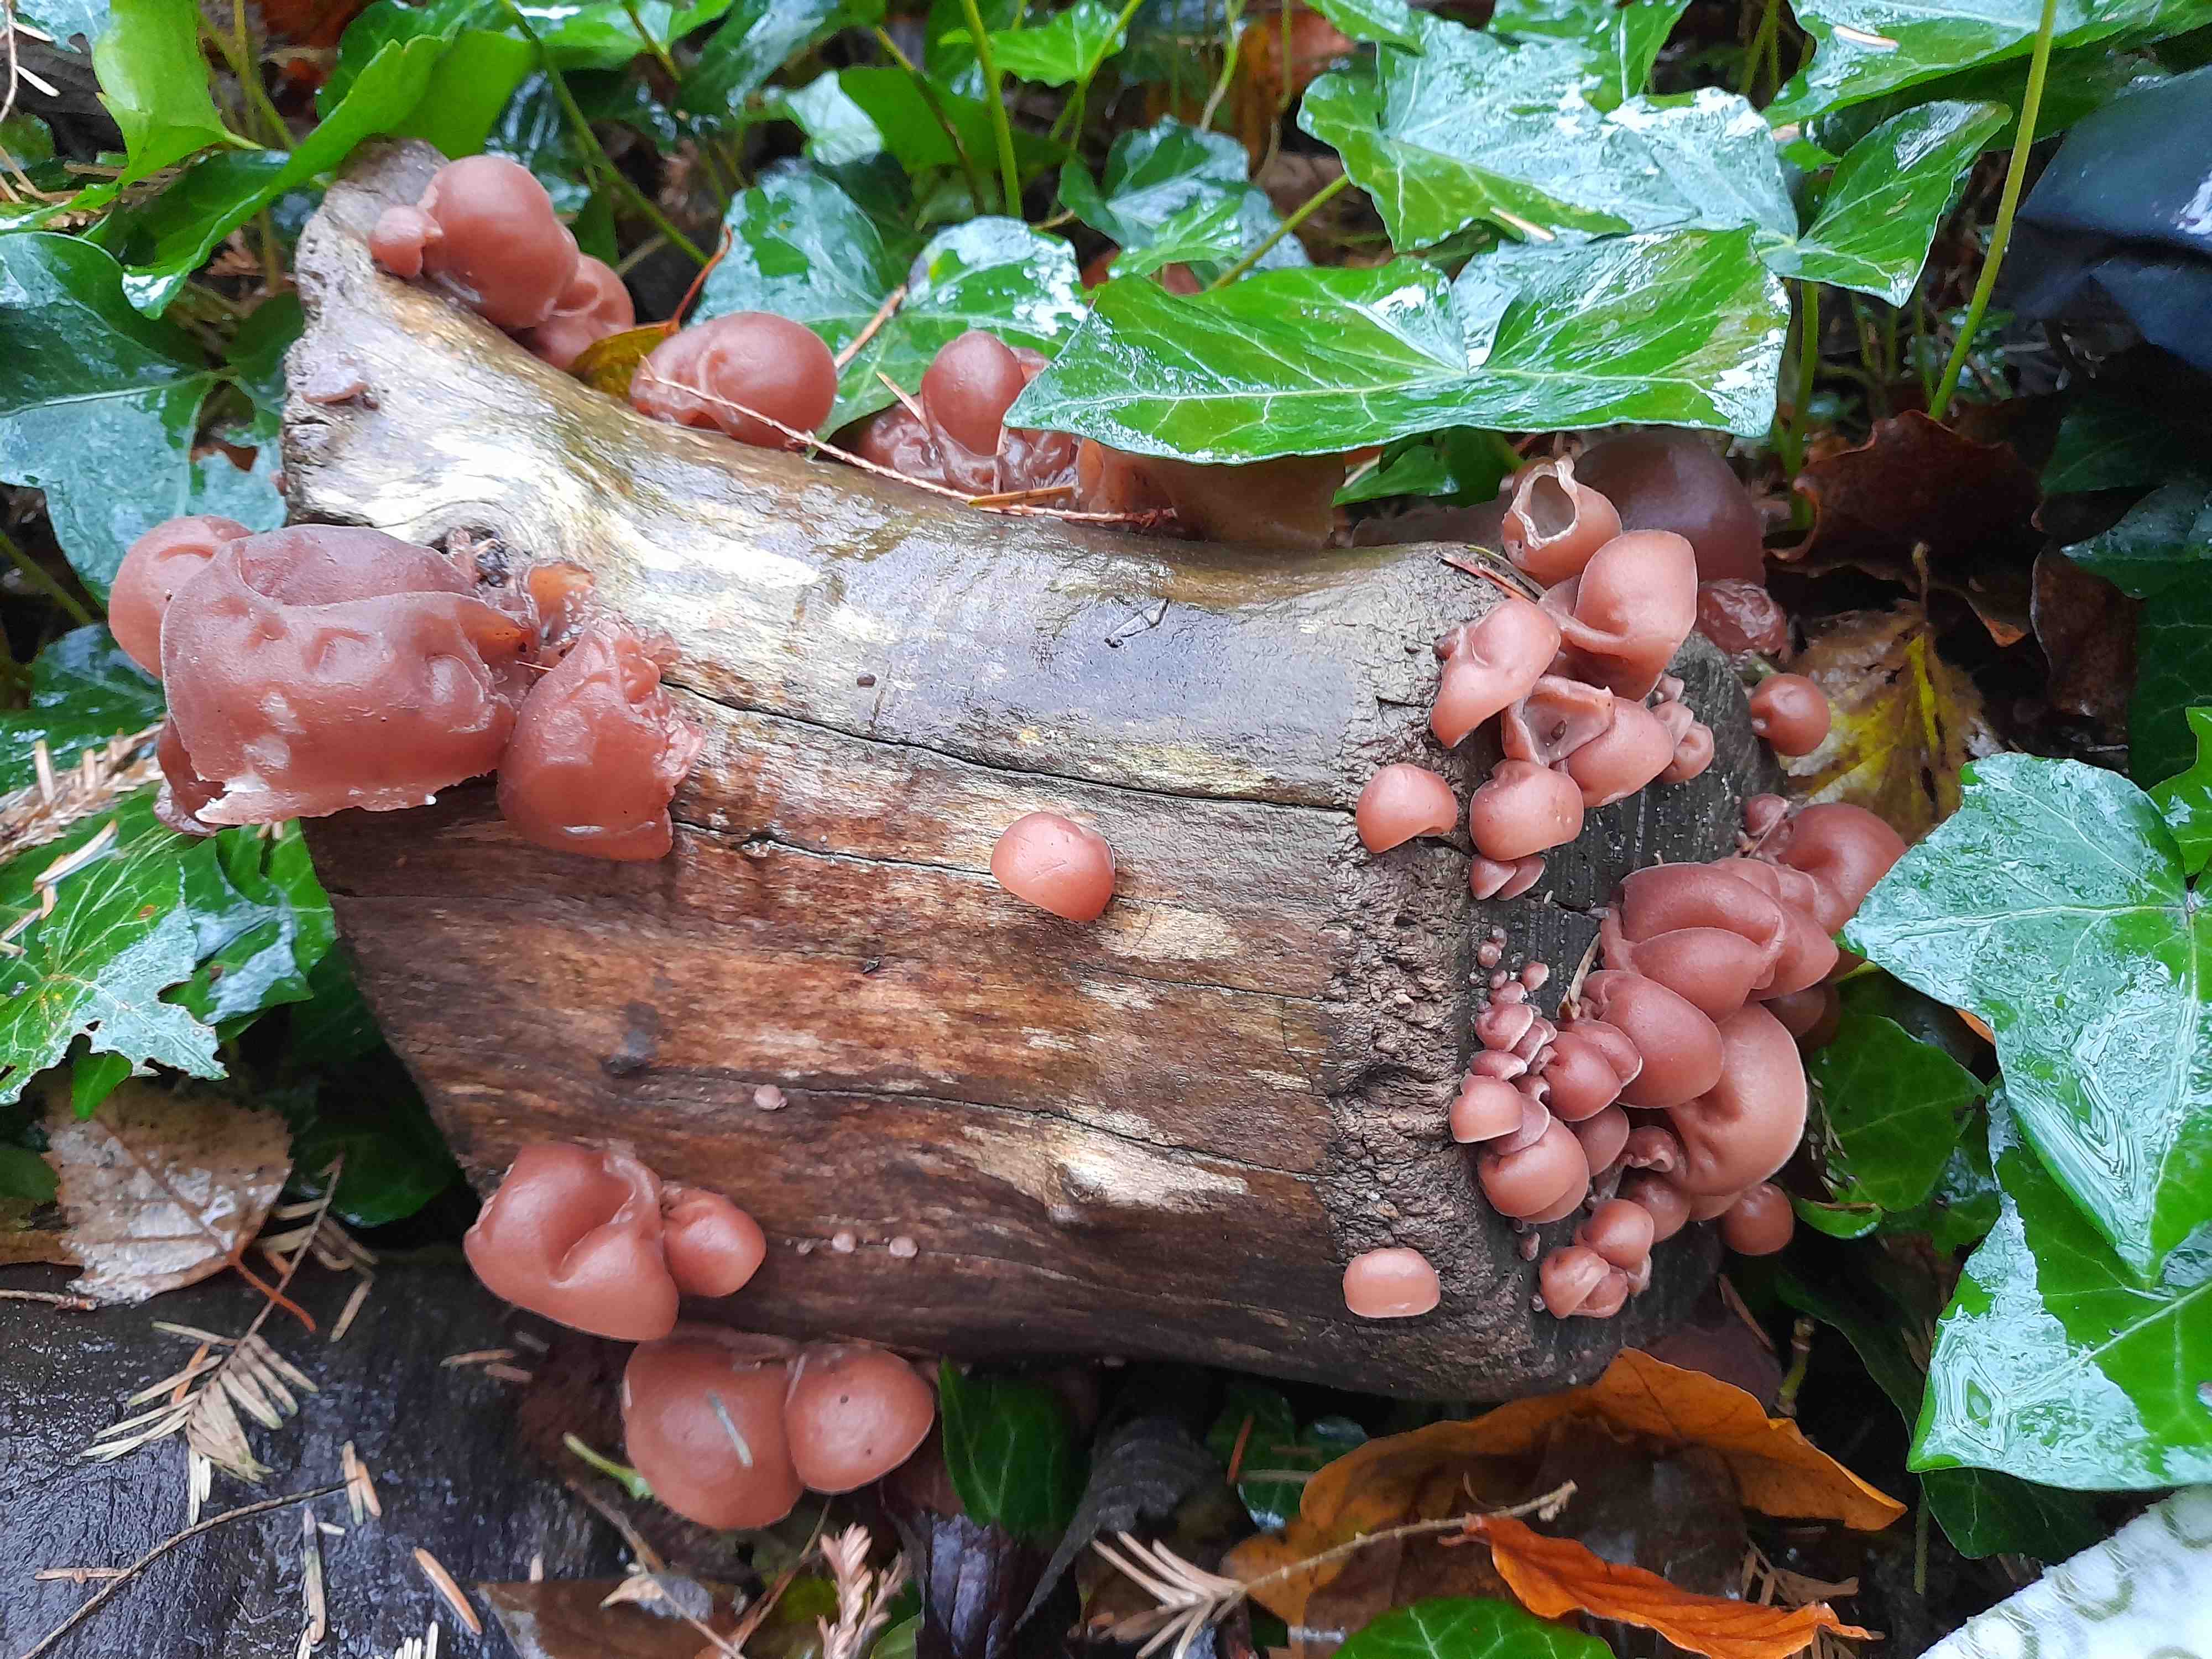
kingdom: Fungi
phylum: Basidiomycota
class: Agaricomycetes
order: Auriculariales
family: Auriculariaceae
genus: Auricularia
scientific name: Auricularia auricula-judae
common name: almindelig judasøre
